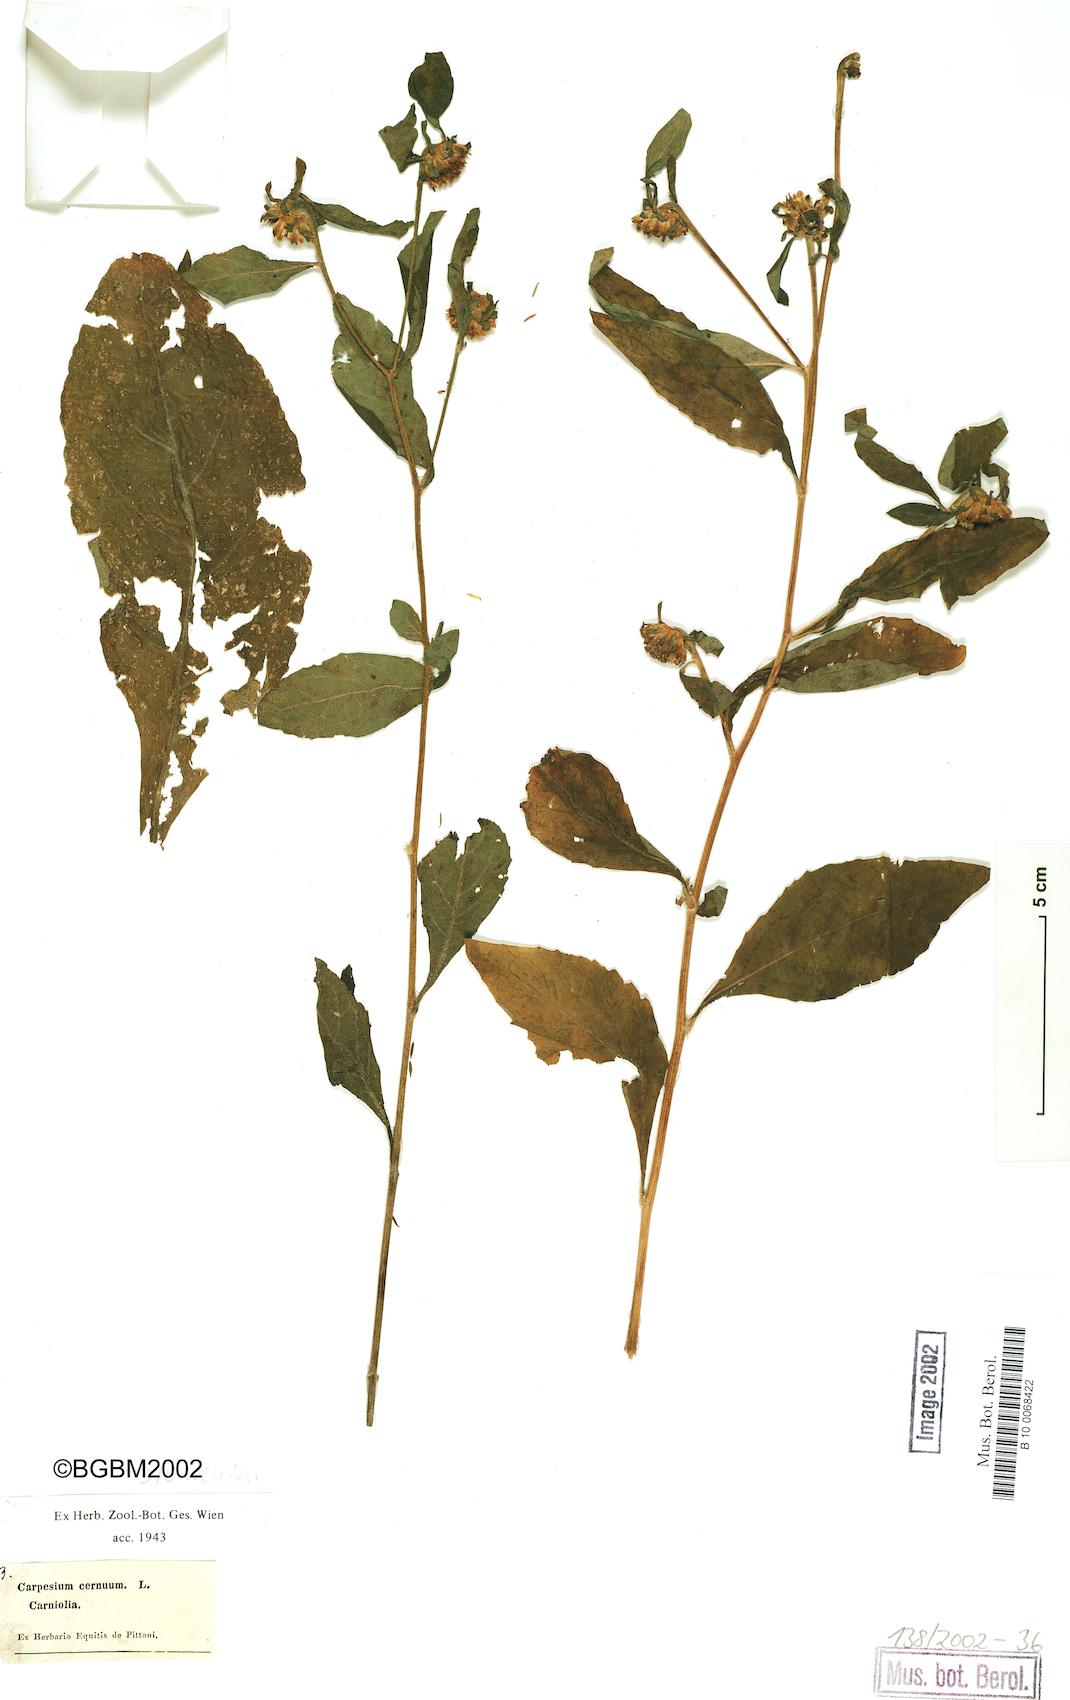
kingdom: Plantae
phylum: Tracheophyta
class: Magnoliopsida
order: Asterales
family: Asteraceae
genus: Carpesium
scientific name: Carpesium cernuum
